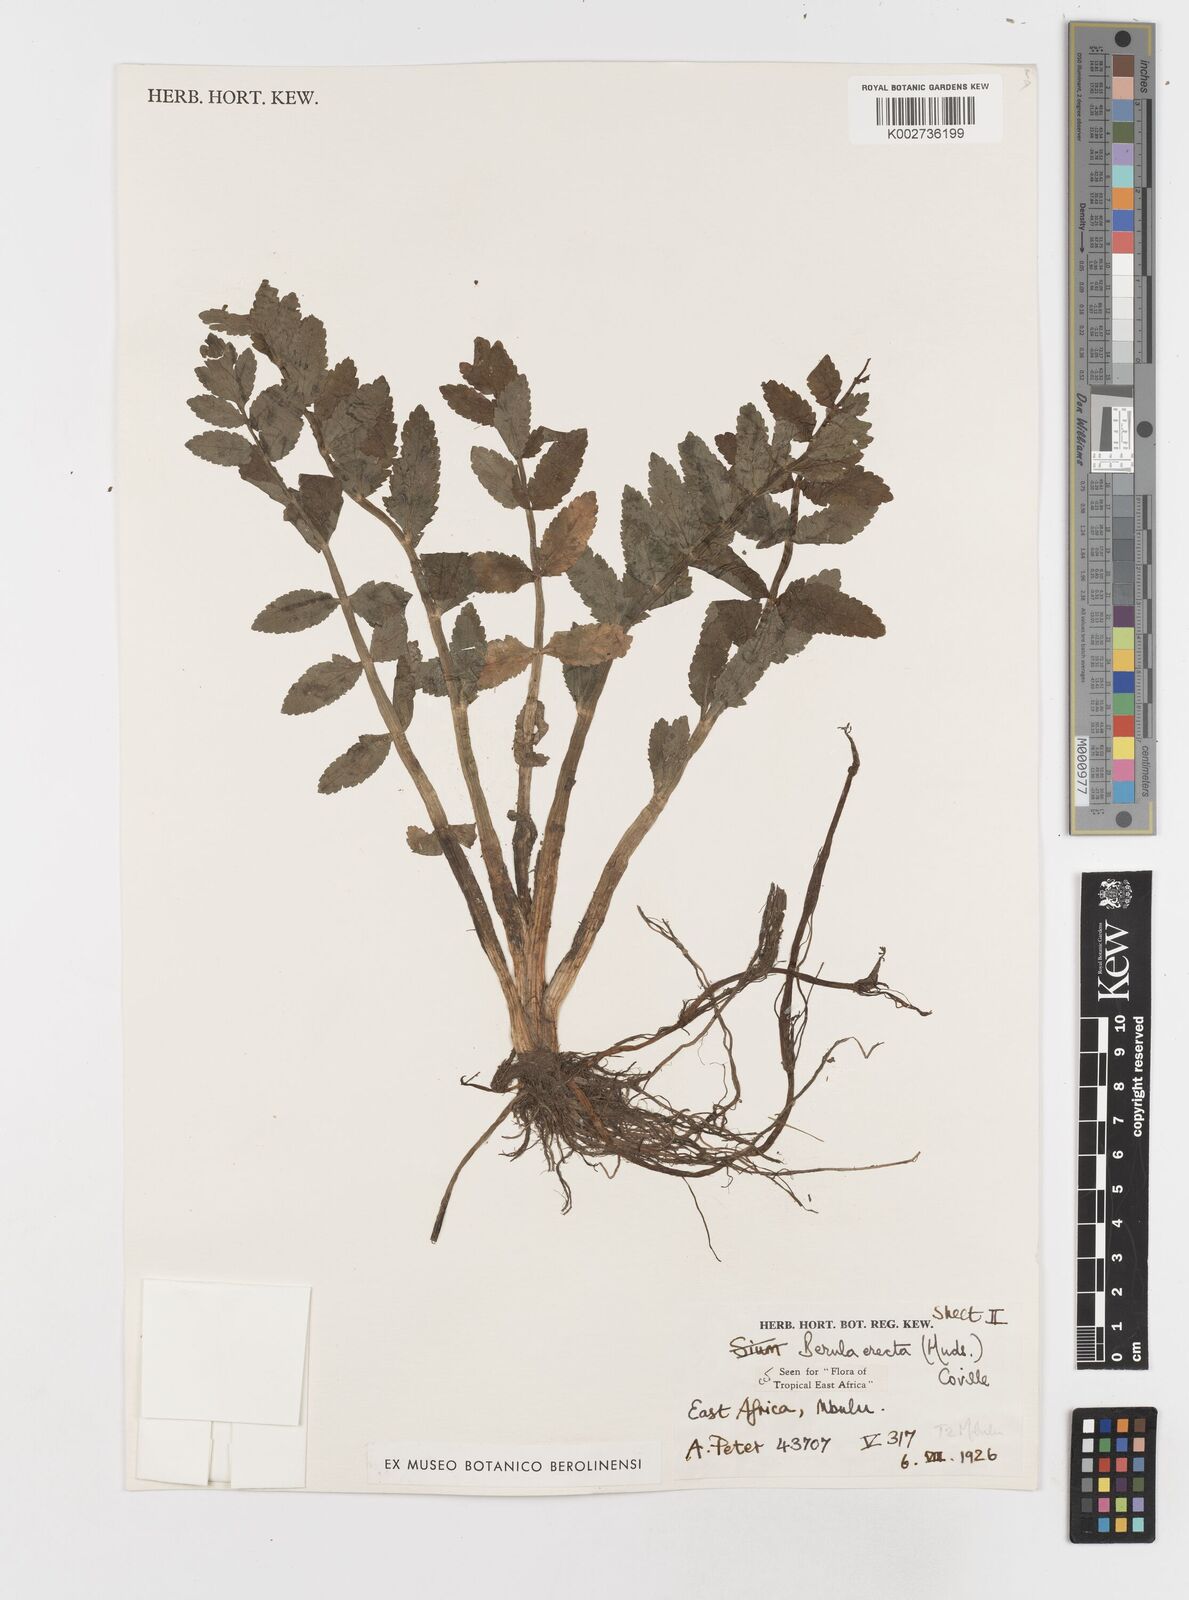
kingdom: Plantae
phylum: Tracheophyta
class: Magnoliopsida
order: Apiales
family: Apiaceae
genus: Berula
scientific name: Berula erecta
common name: Lesser water-parsnip
